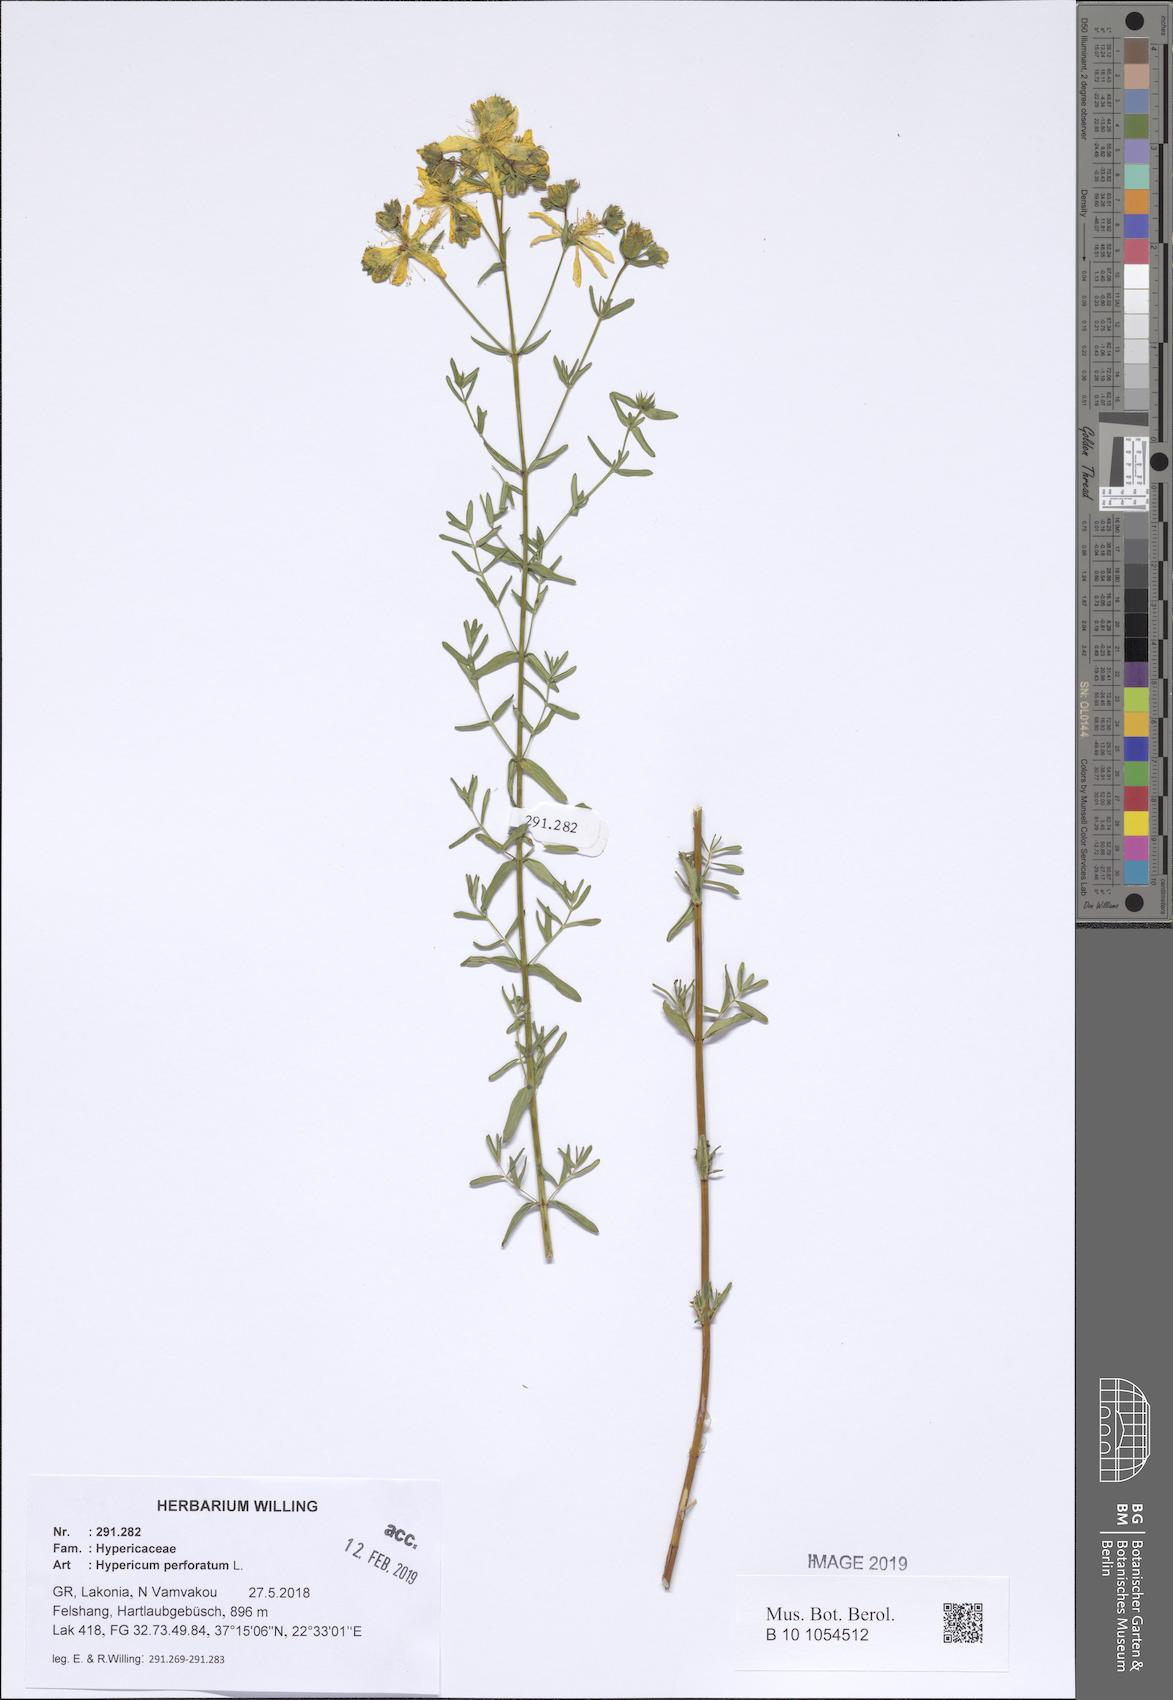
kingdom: Plantae
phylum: Tracheophyta
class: Magnoliopsida
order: Malpighiales
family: Hypericaceae
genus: Hypericum
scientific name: Hypericum perforatum
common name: Common st. johnswort
